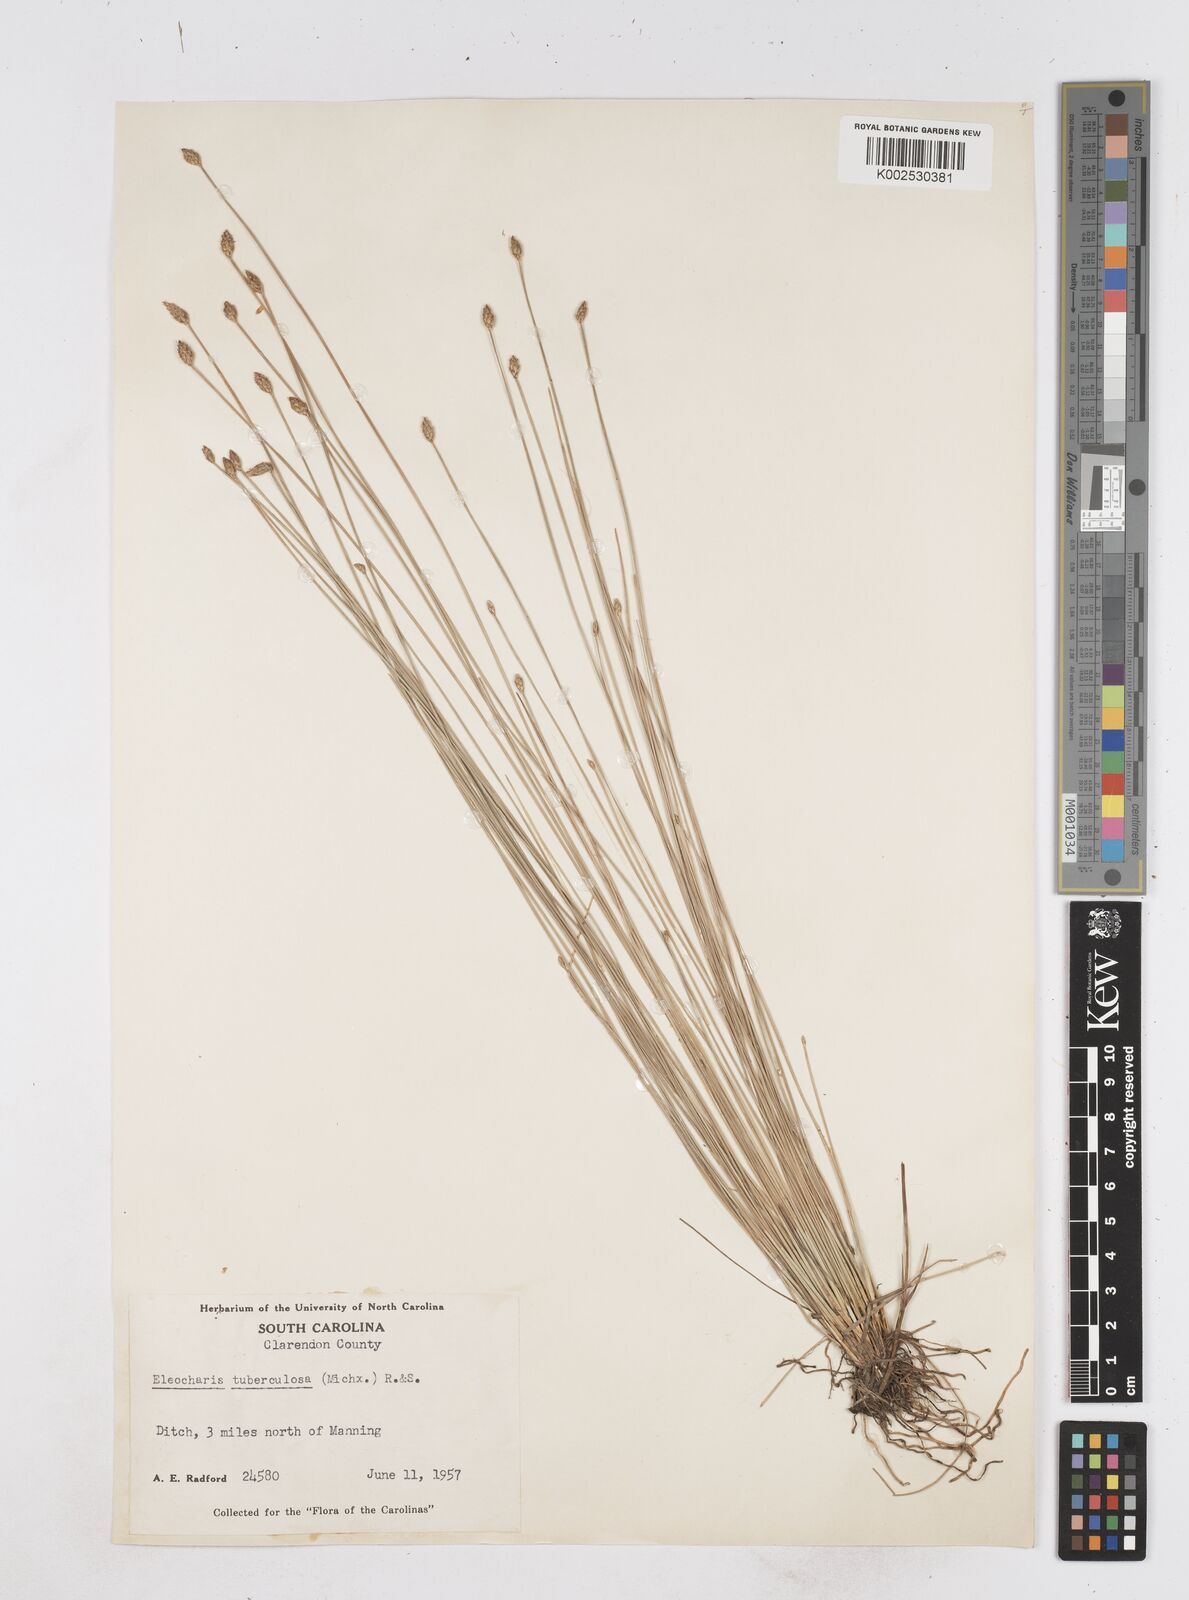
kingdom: Plantae
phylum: Tracheophyta
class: Liliopsida
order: Poales
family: Cyperaceae
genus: Eleocharis
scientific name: Eleocharis tuberculosa
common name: Cone-cup spikerush
